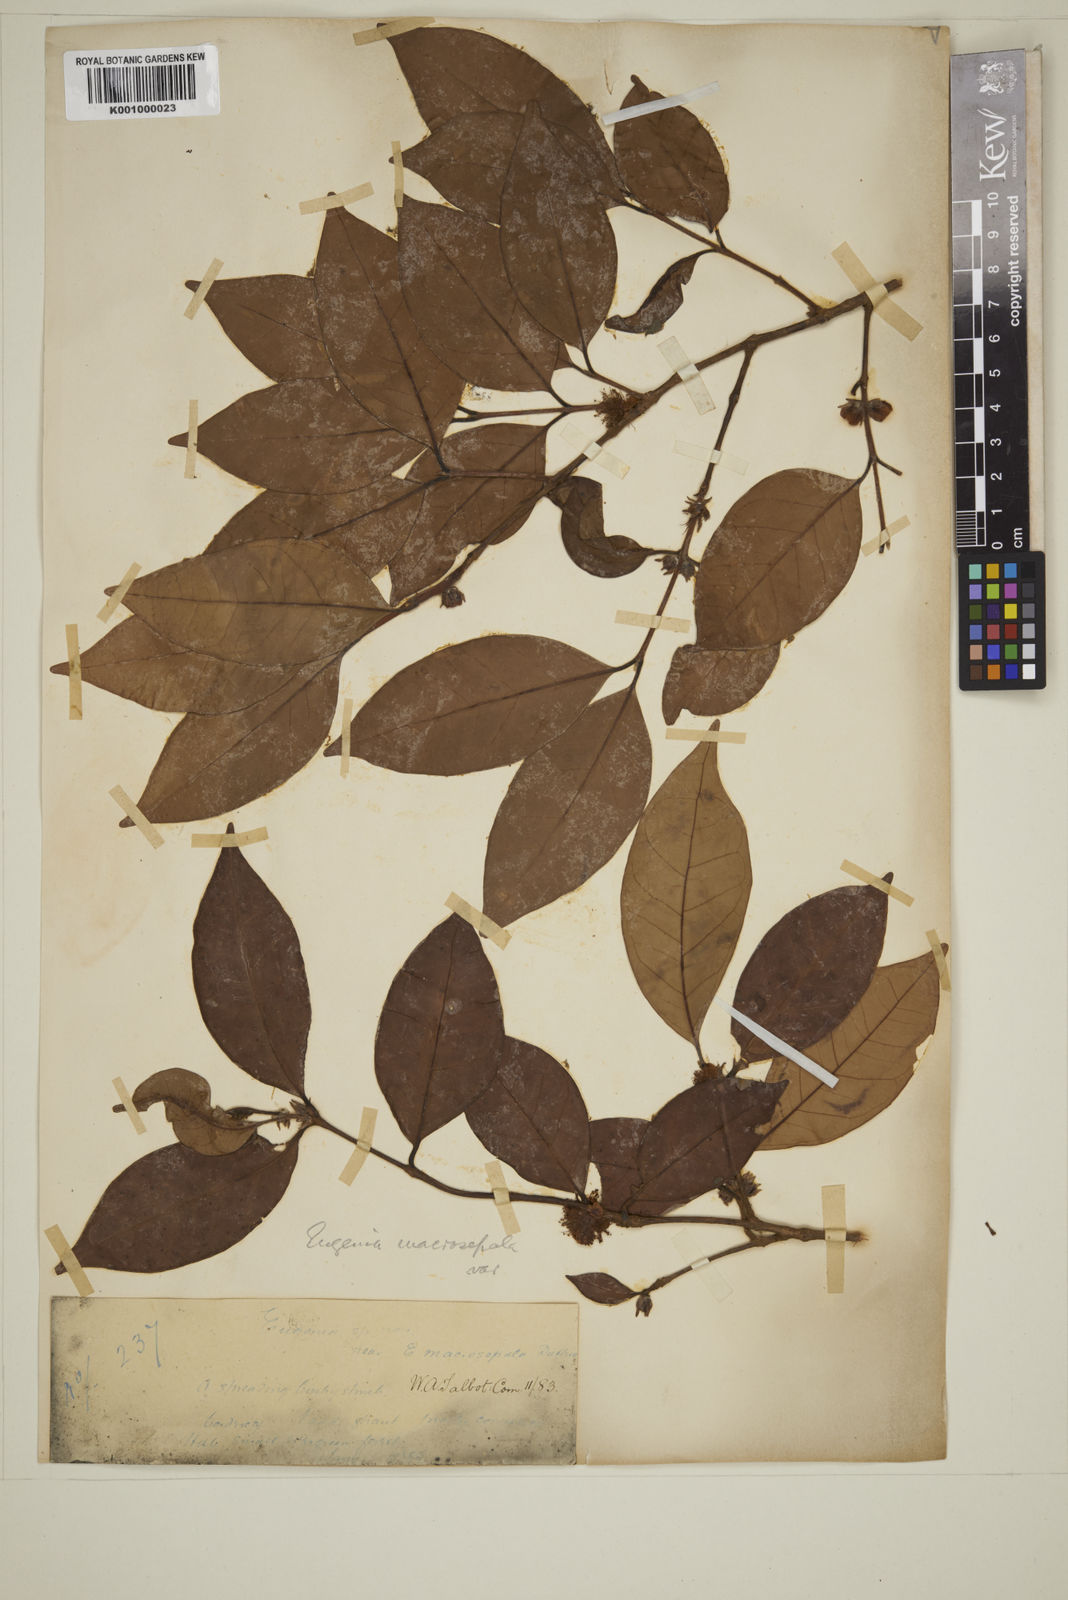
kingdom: Plantae
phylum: Tracheophyta
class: Magnoliopsida
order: Myrtales
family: Myrtaceae
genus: Eugenia
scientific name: Eugenia macrosepala
